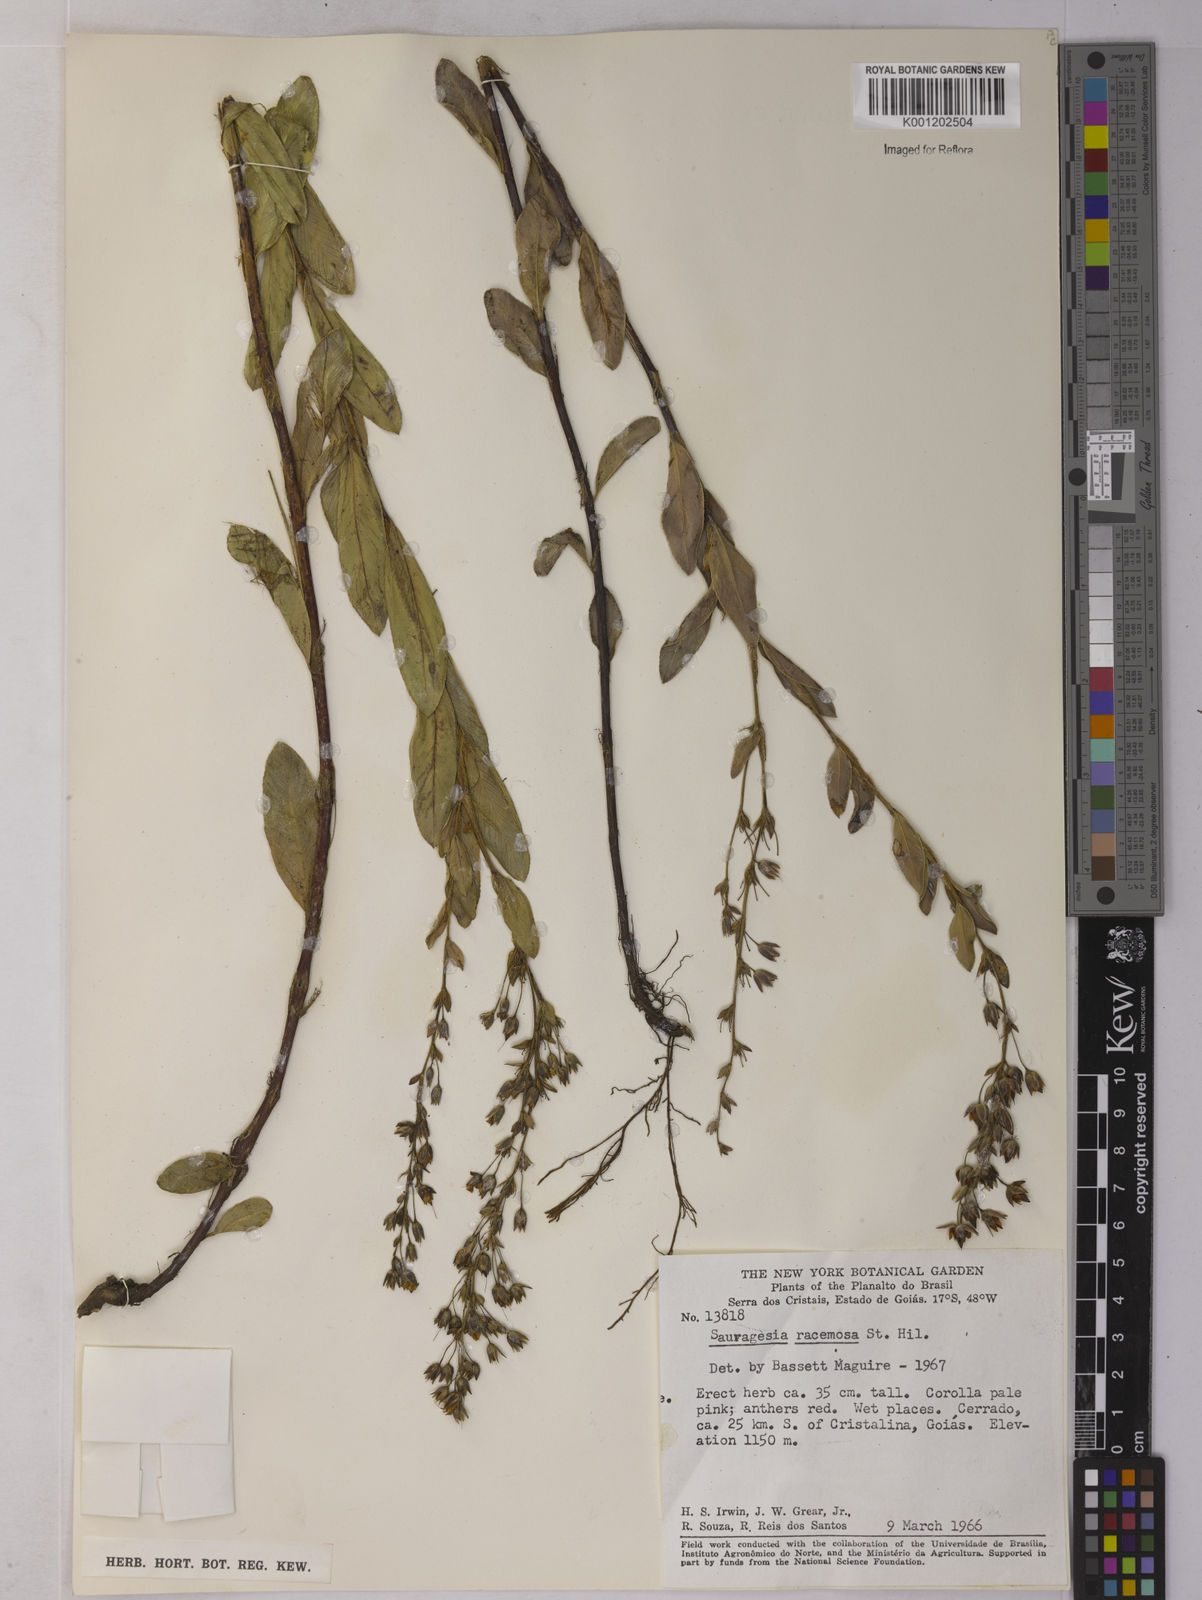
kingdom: Plantae
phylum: Tracheophyta
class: Magnoliopsida
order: Malpighiales
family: Ochnaceae
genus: Sauvagesia
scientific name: Sauvagesia racemosa
